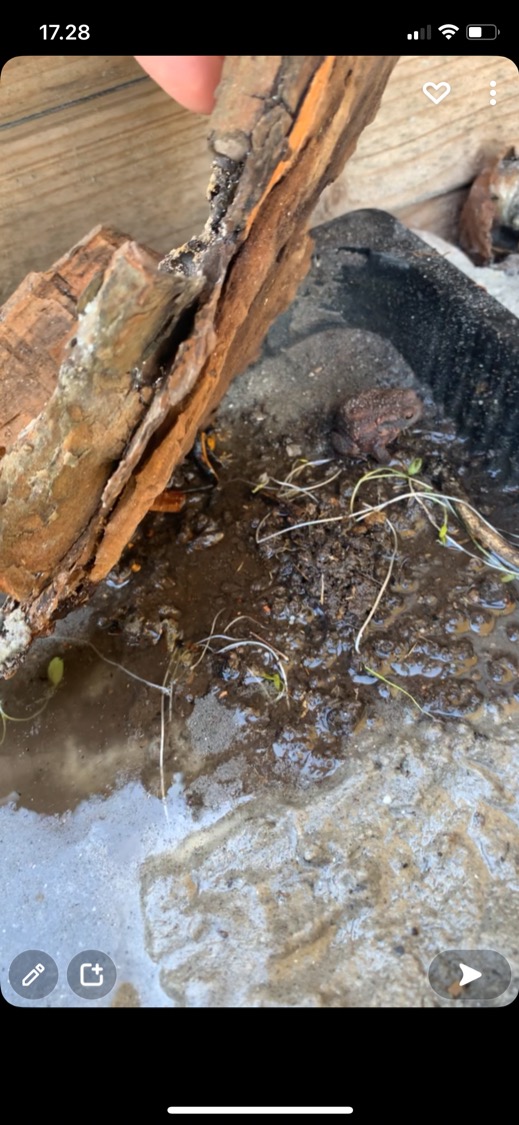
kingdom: Animalia
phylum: Chordata
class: Amphibia
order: Anura
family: Bufonidae
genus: Bufo
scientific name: Bufo bufo
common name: Skrubtudse
